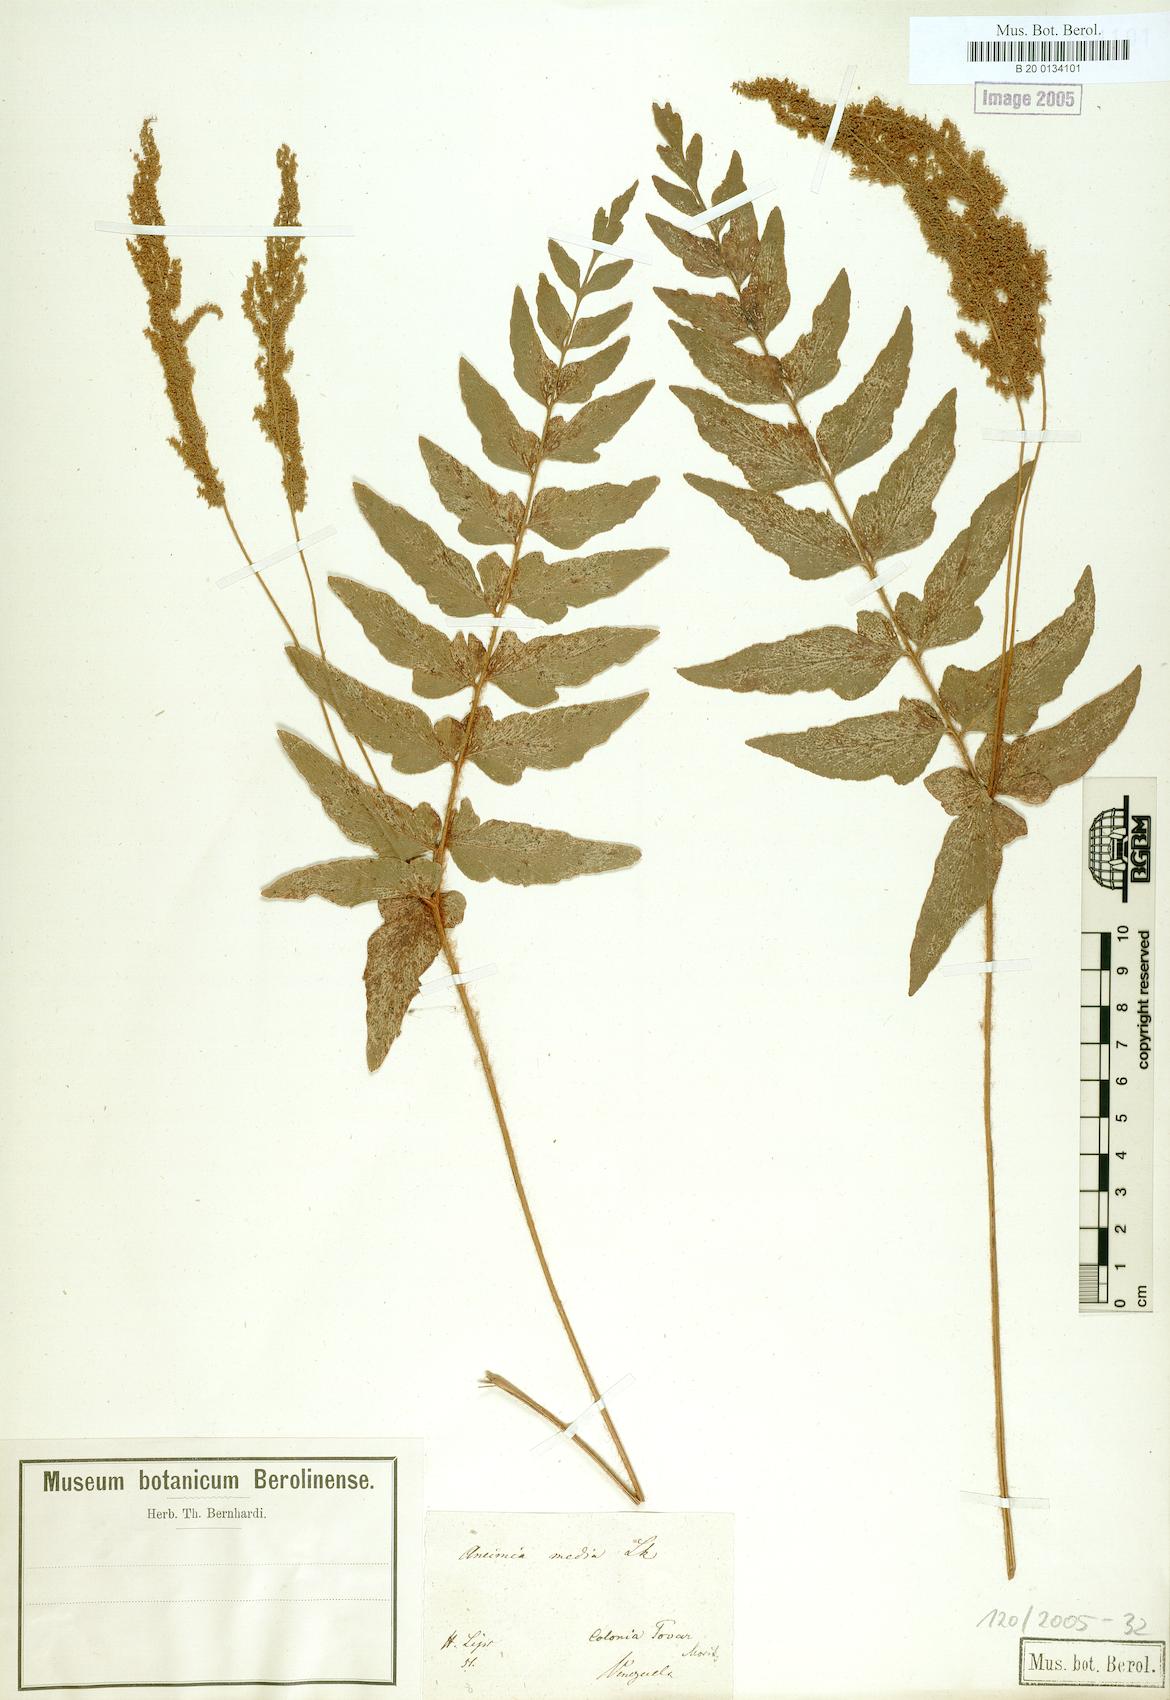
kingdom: Plantae
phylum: Tracheophyta
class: Polypodiopsida
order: Schizaeales
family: Anemiaceae
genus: Anemia
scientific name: Anemia hirta
